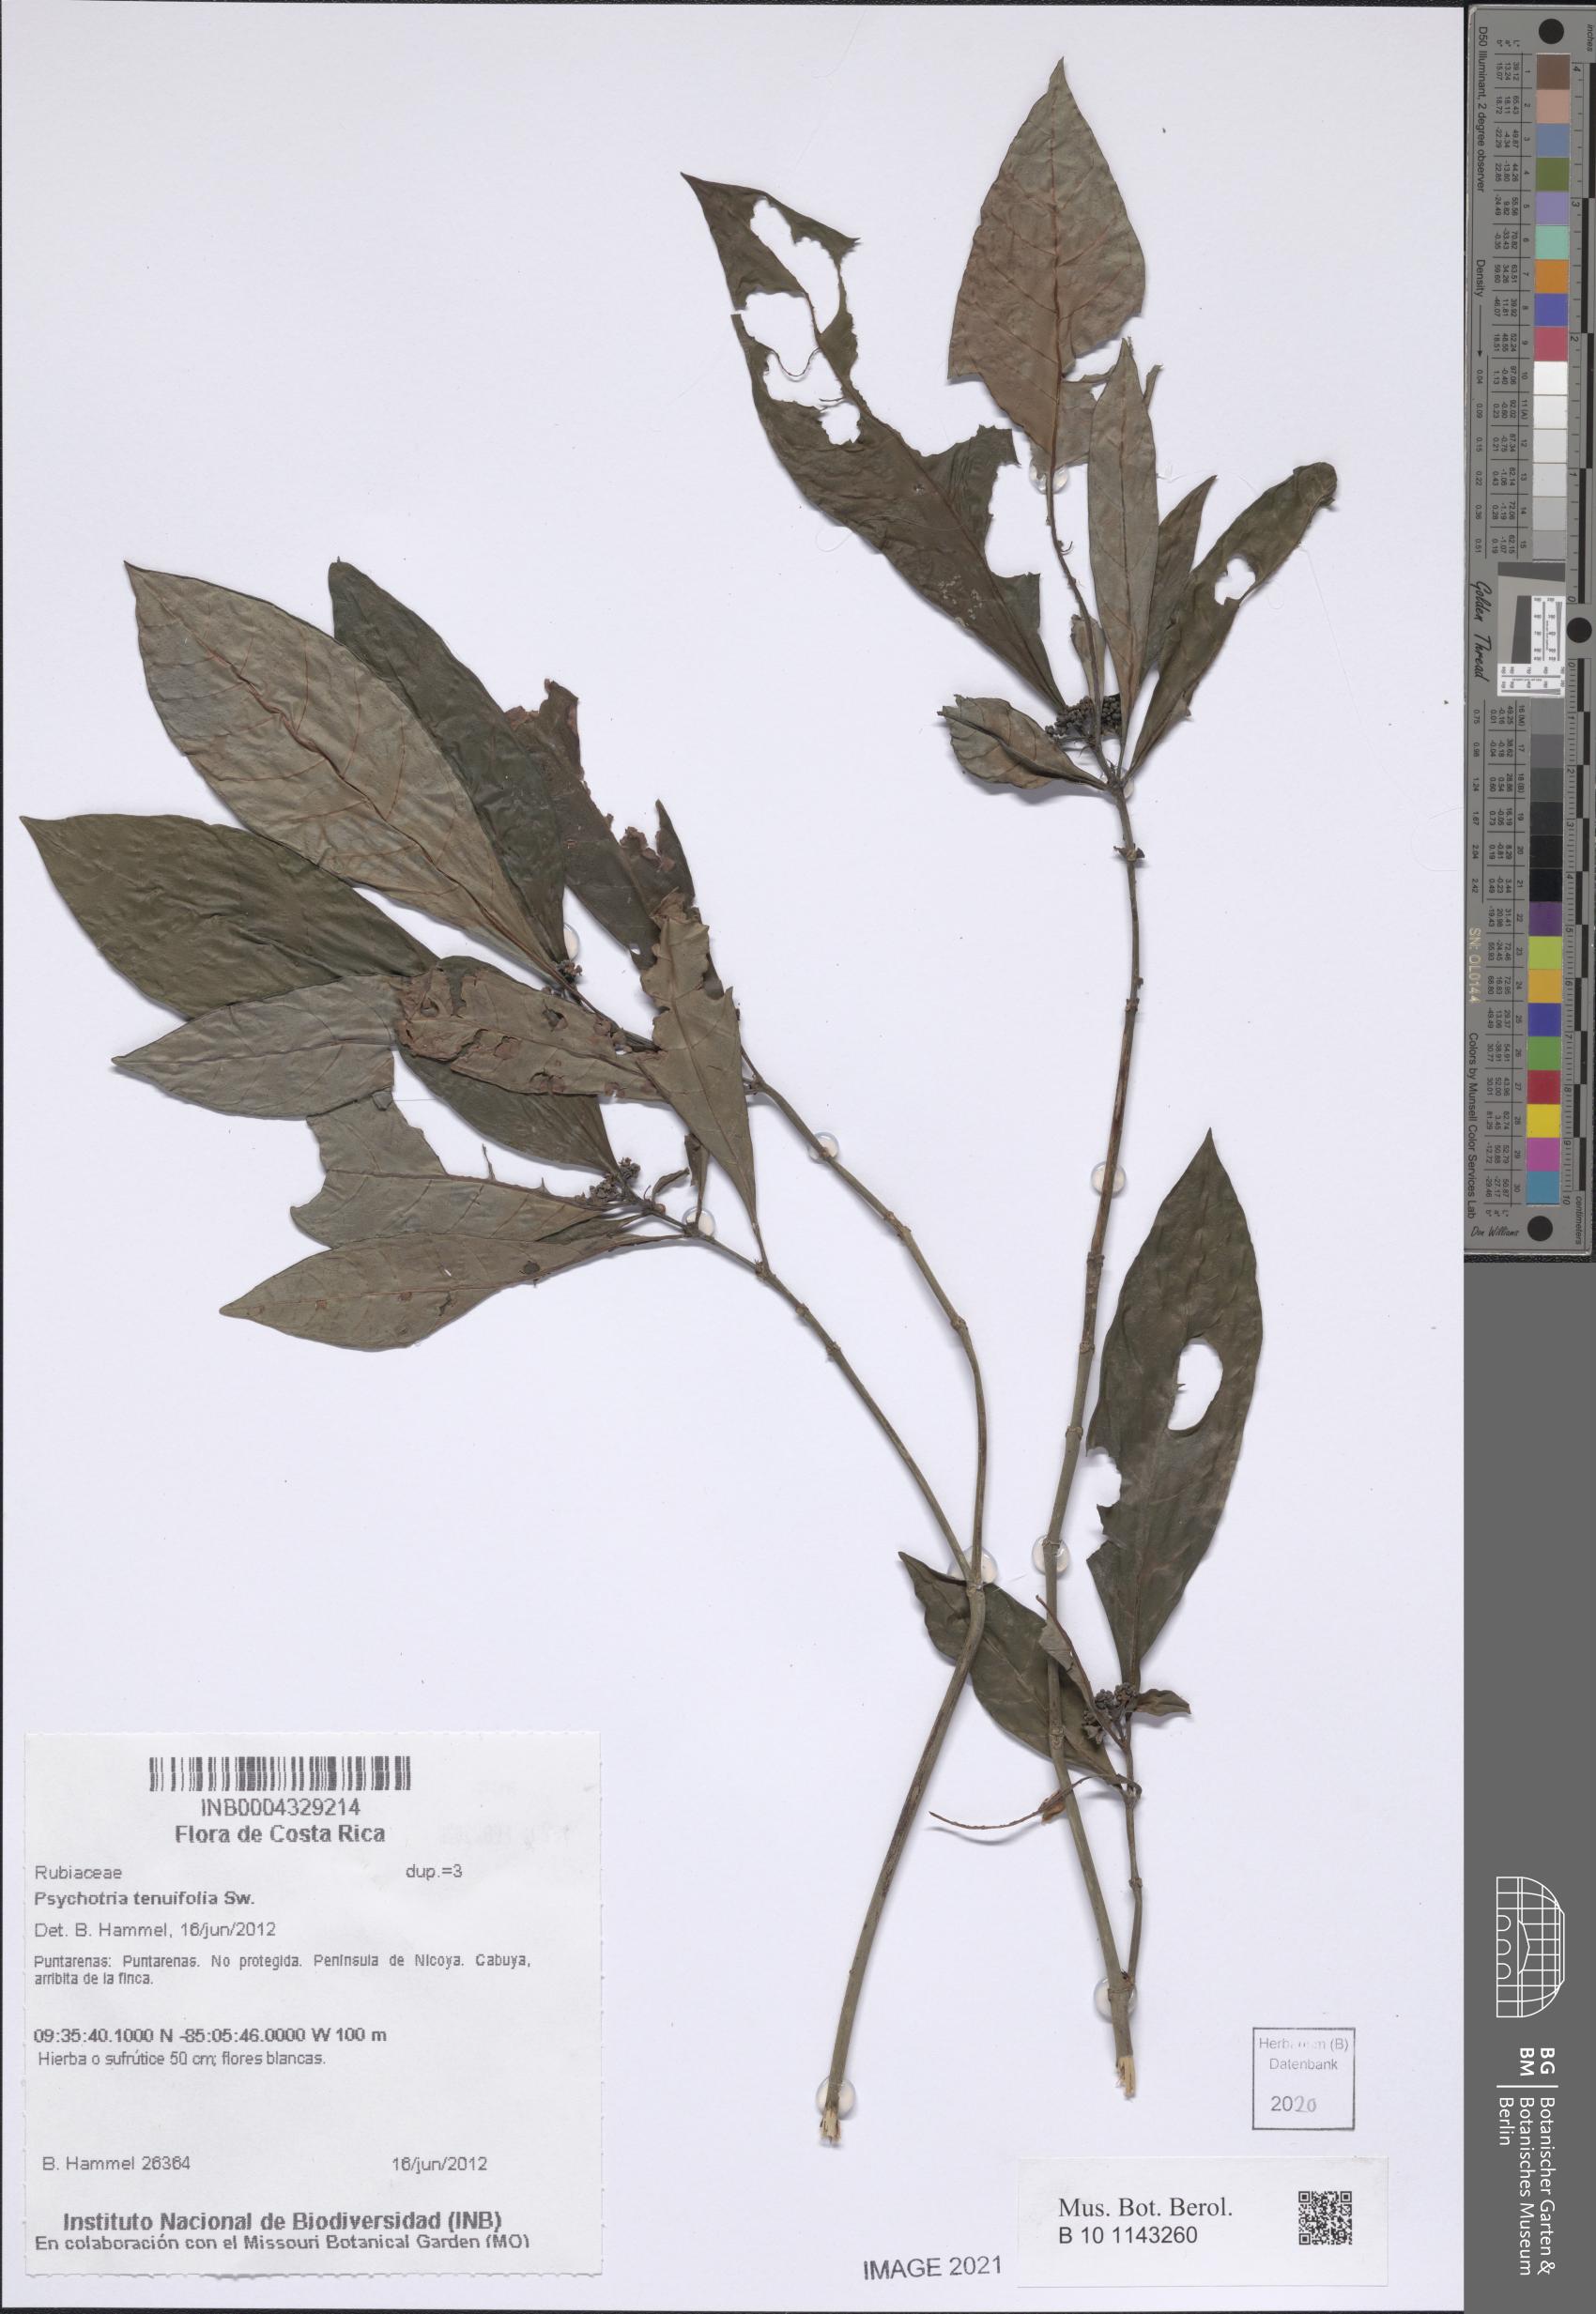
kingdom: Plantae
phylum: Tracheophyta
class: Magnoliopsida
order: Gentianales
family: Rubiaceae
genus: Psychotria
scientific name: Psychotria tenuifolia
